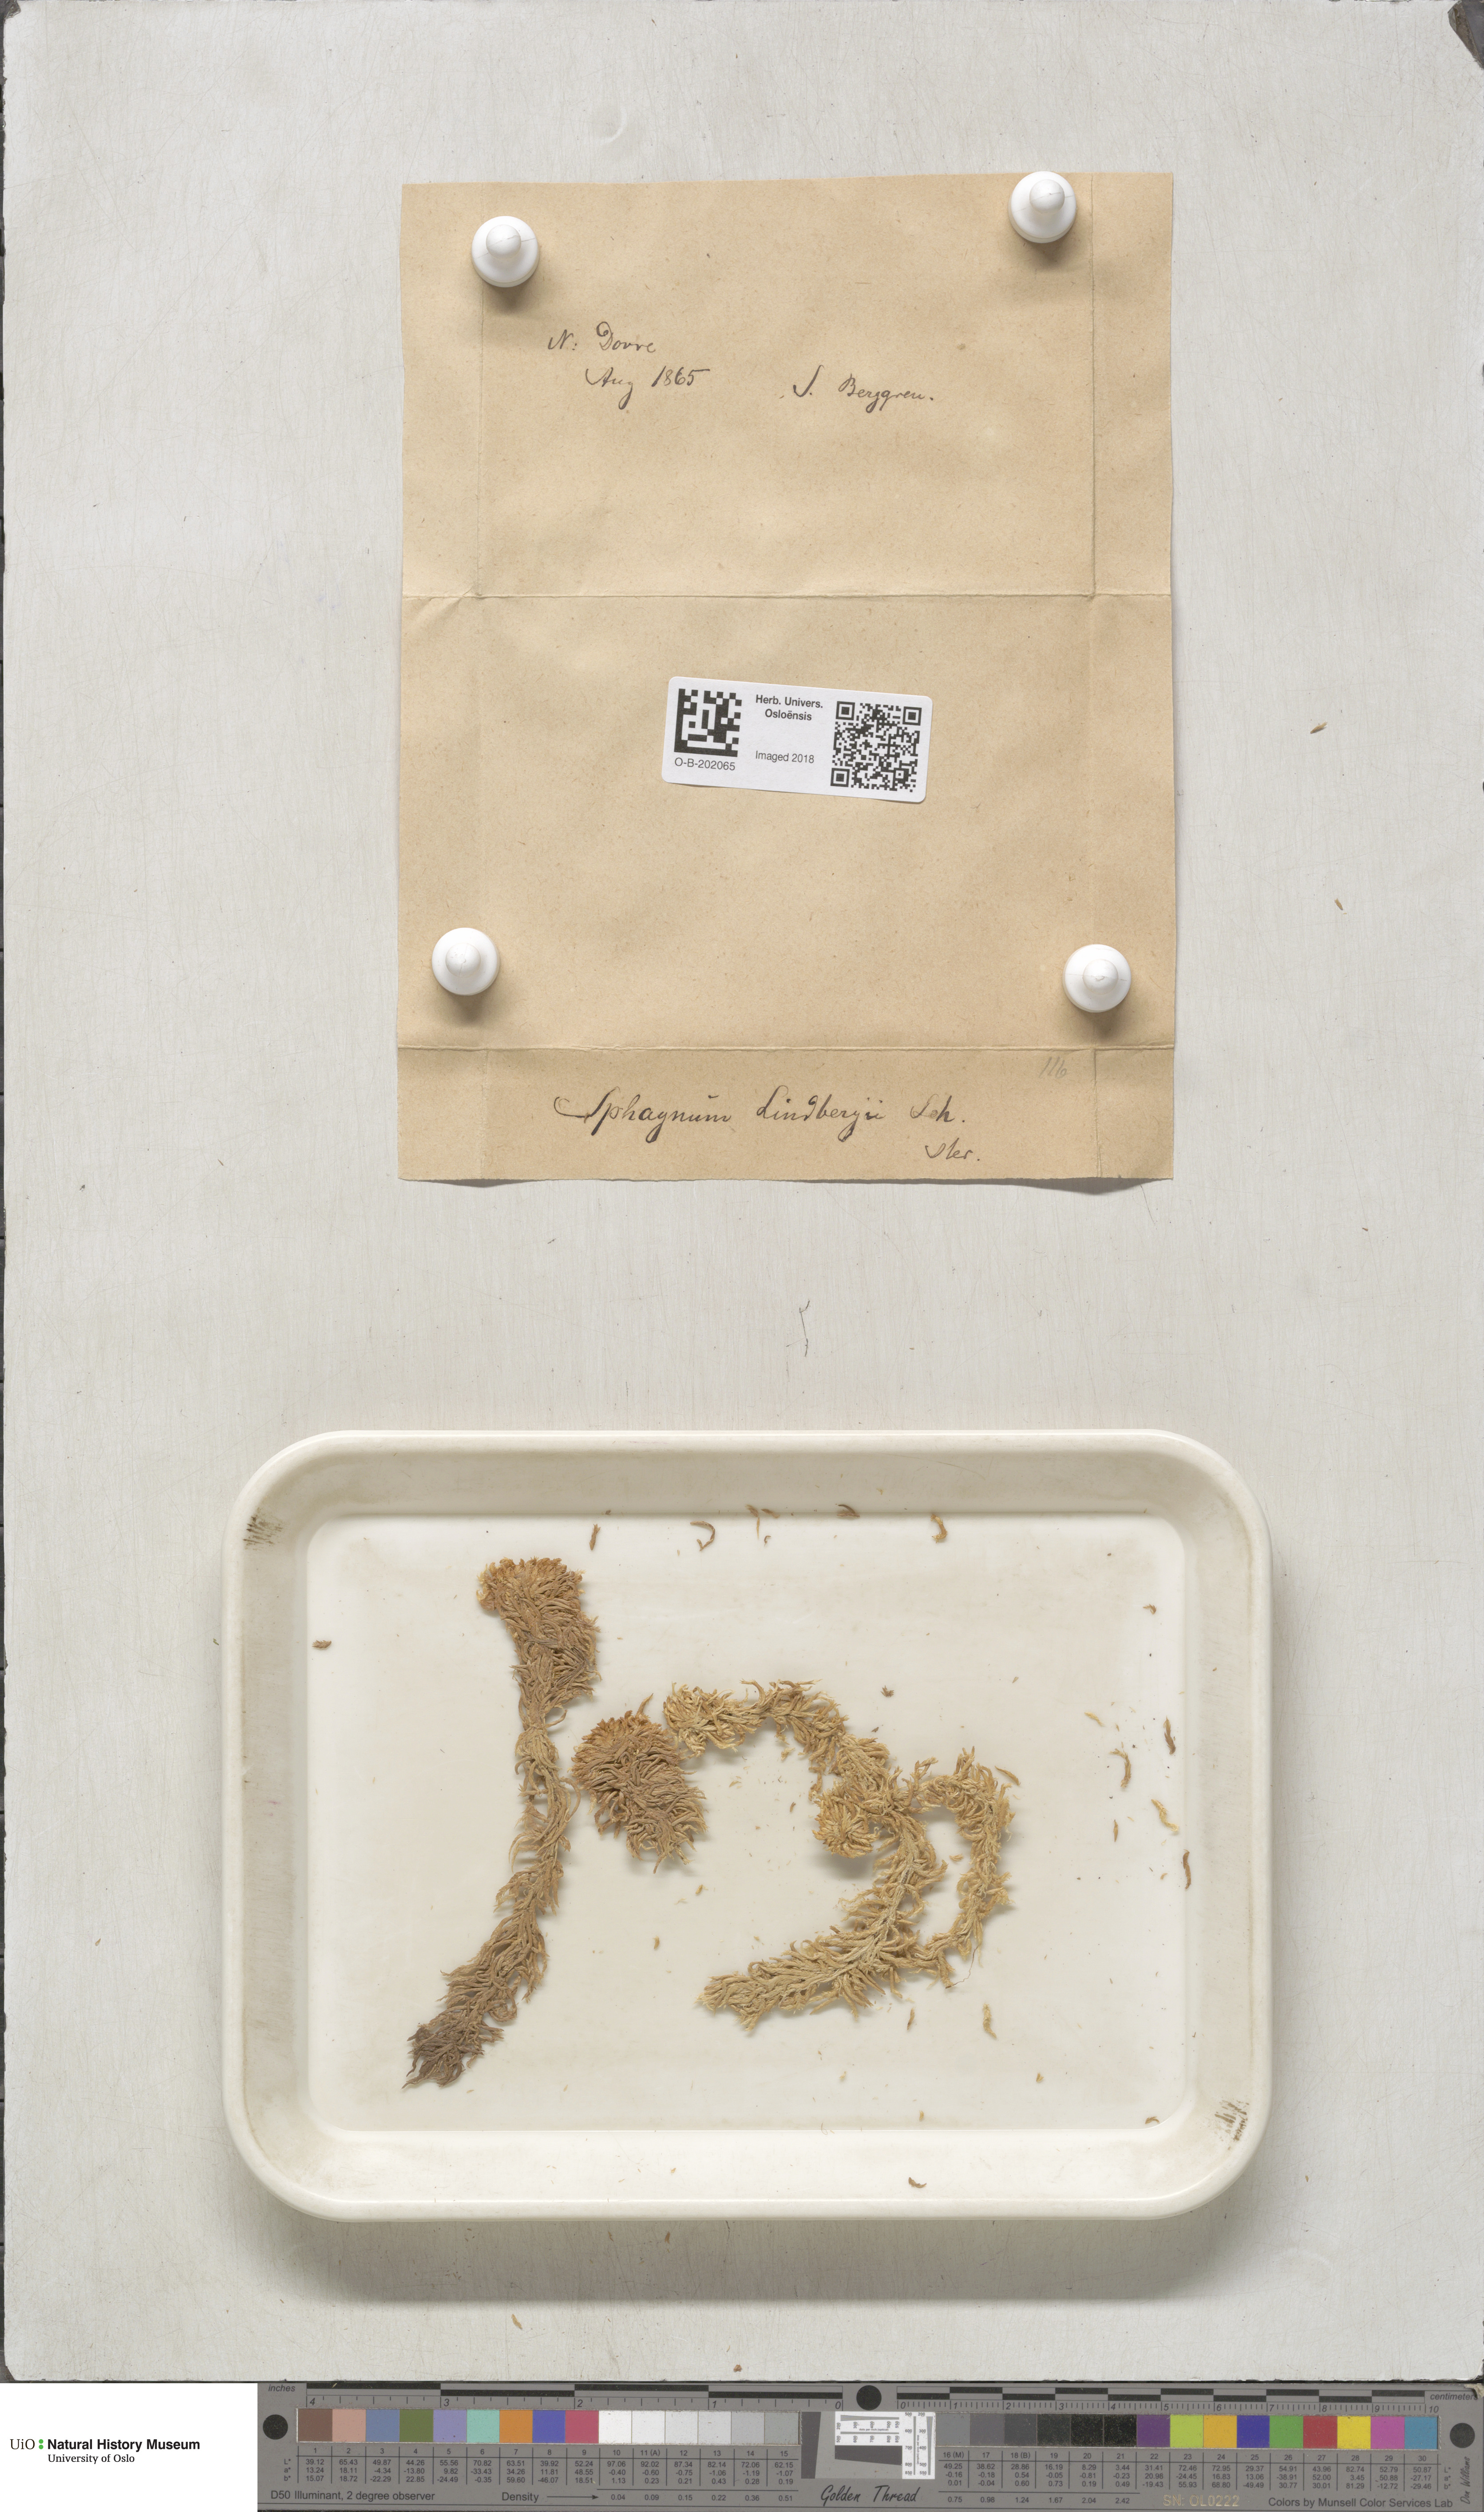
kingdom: Plantae
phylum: Bryophyta
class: Sphagnopsida
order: Sphagnales
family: Sphagnaceae
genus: Sphagnum
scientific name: Sphagnum lindbergii
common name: Lindberg's peat moss
